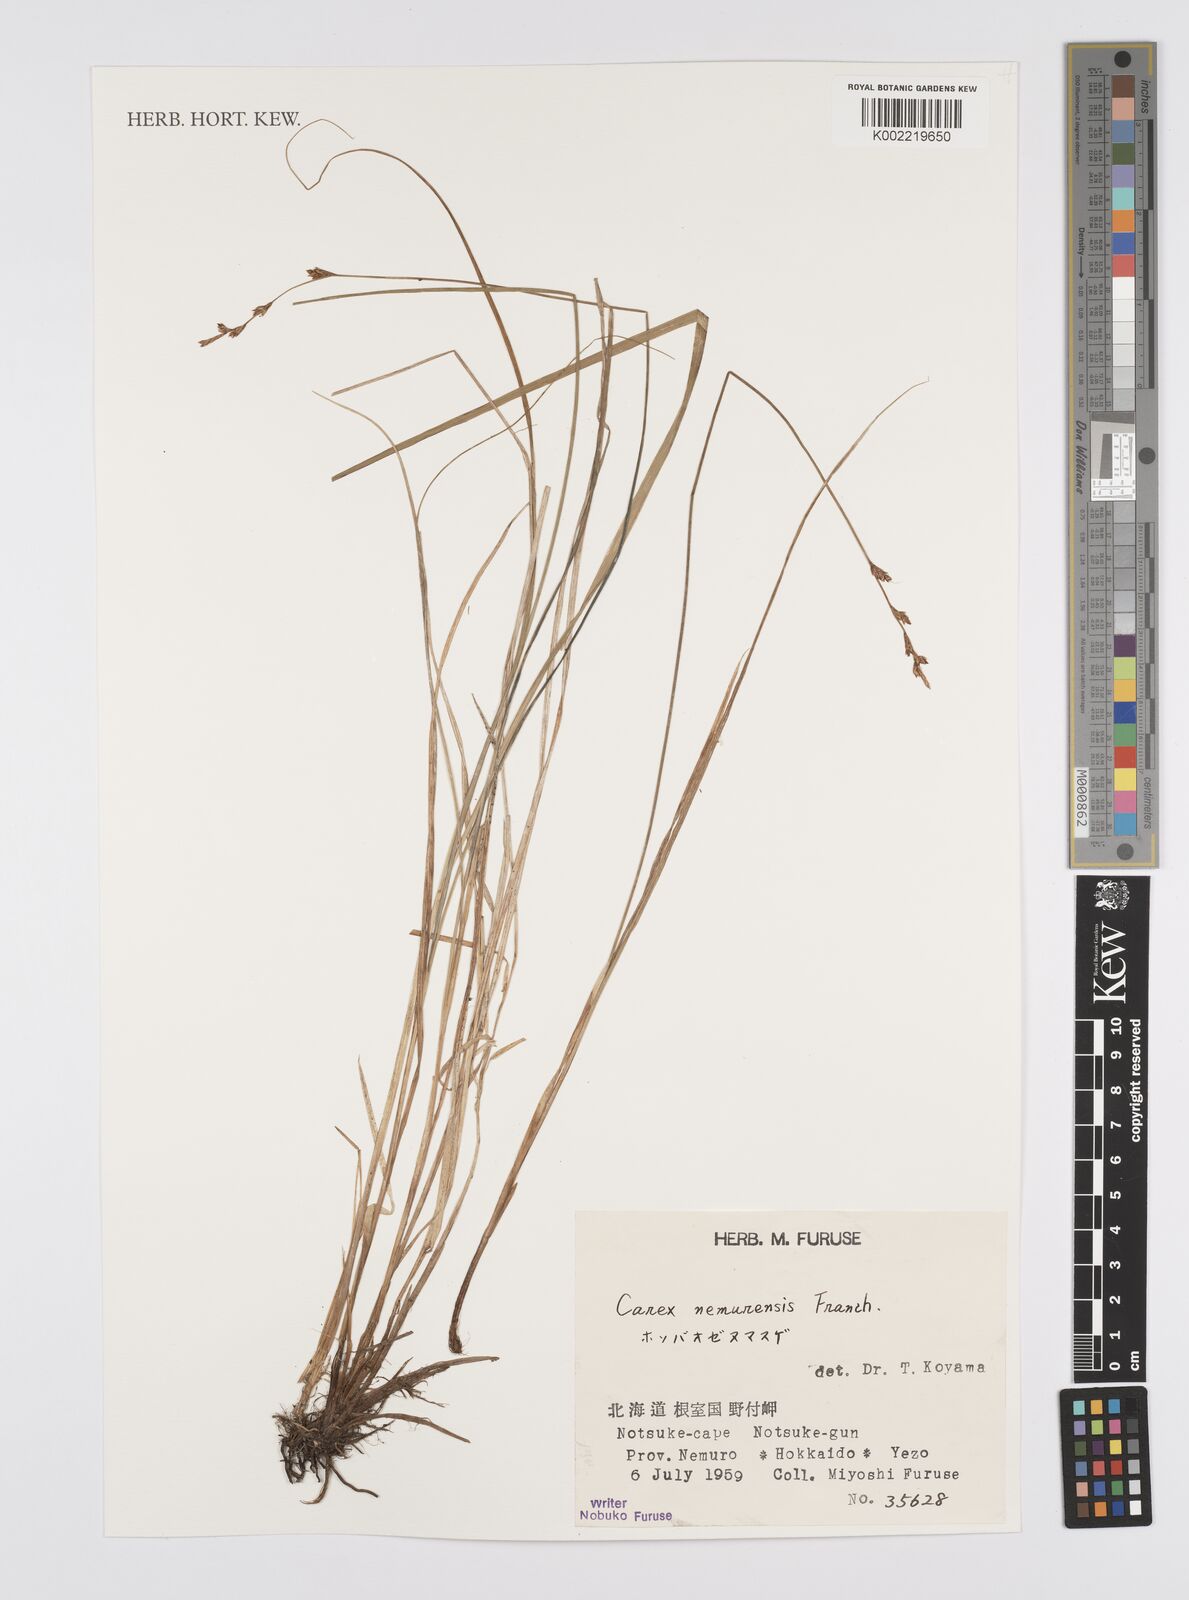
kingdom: Plantae
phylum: Tracheophyta
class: Liliopsida
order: Poales
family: Cyperaceae
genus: Carex
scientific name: Carex traiziscana
